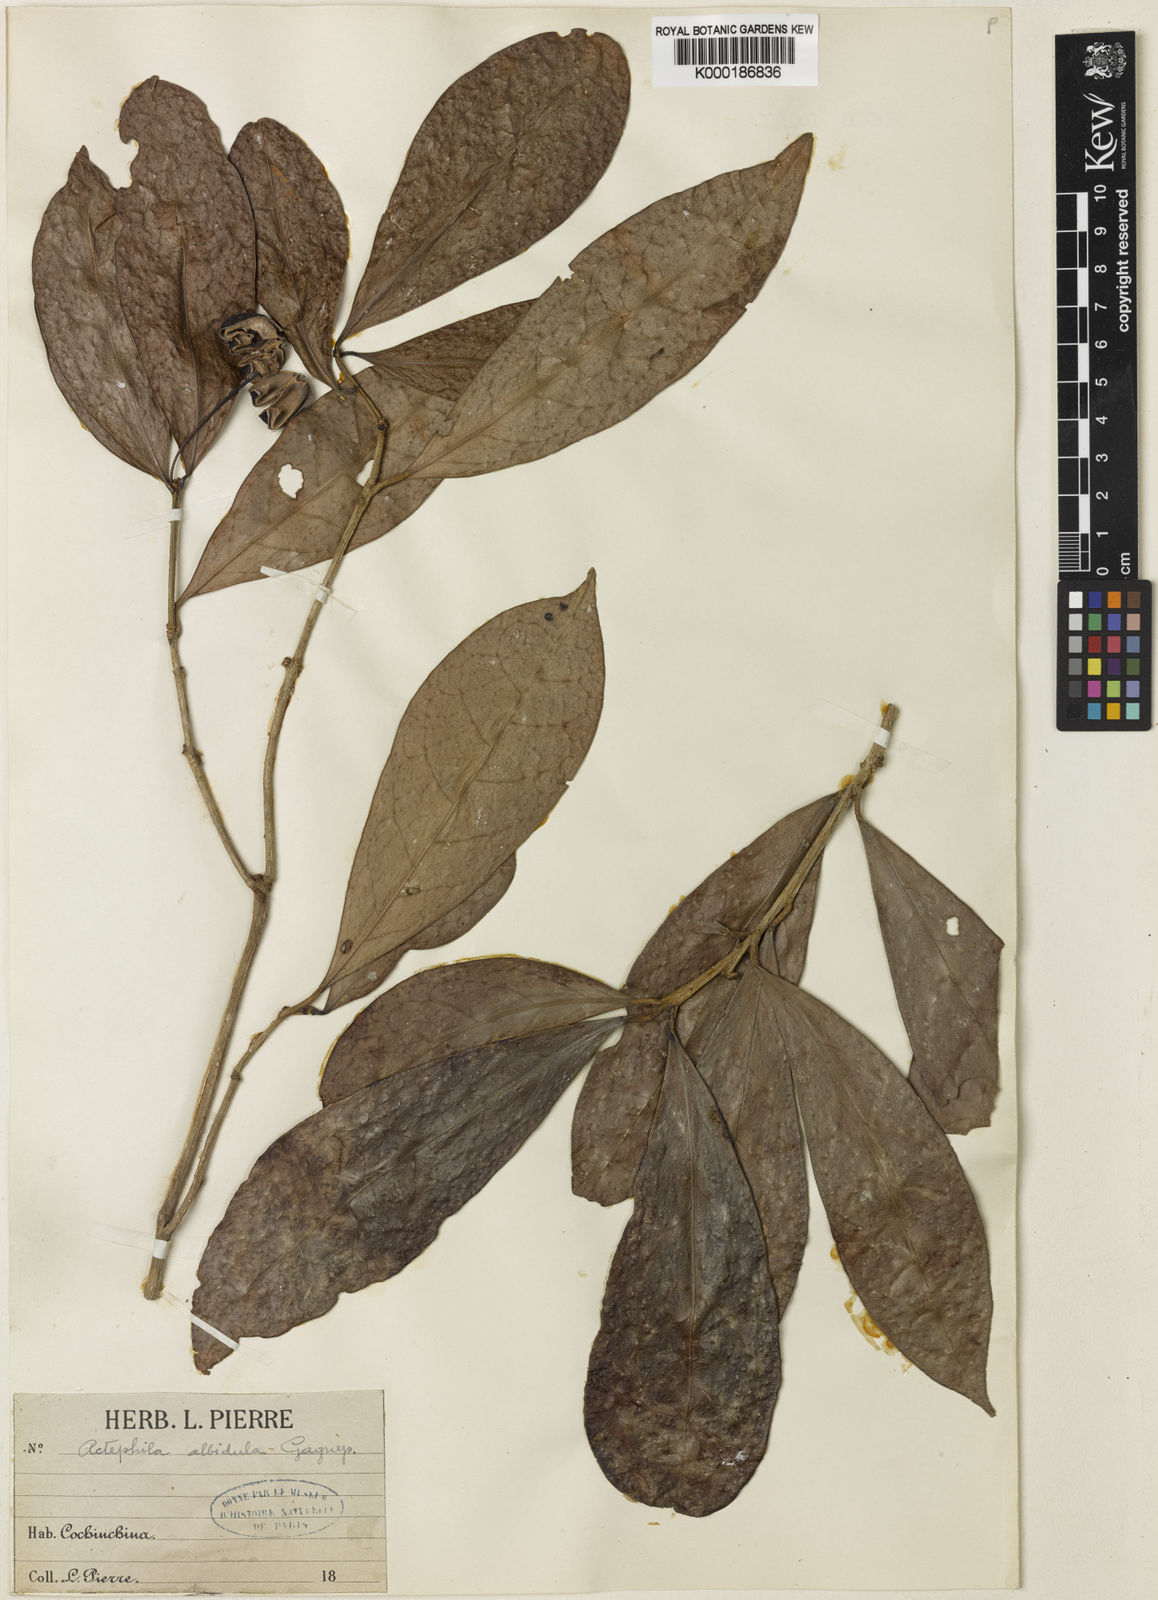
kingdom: Plantae
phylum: Tracheophyta
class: Magnoliopsida
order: Malpighiales
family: Phyllanthaceae
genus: Actephila
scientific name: Actephila albidula
